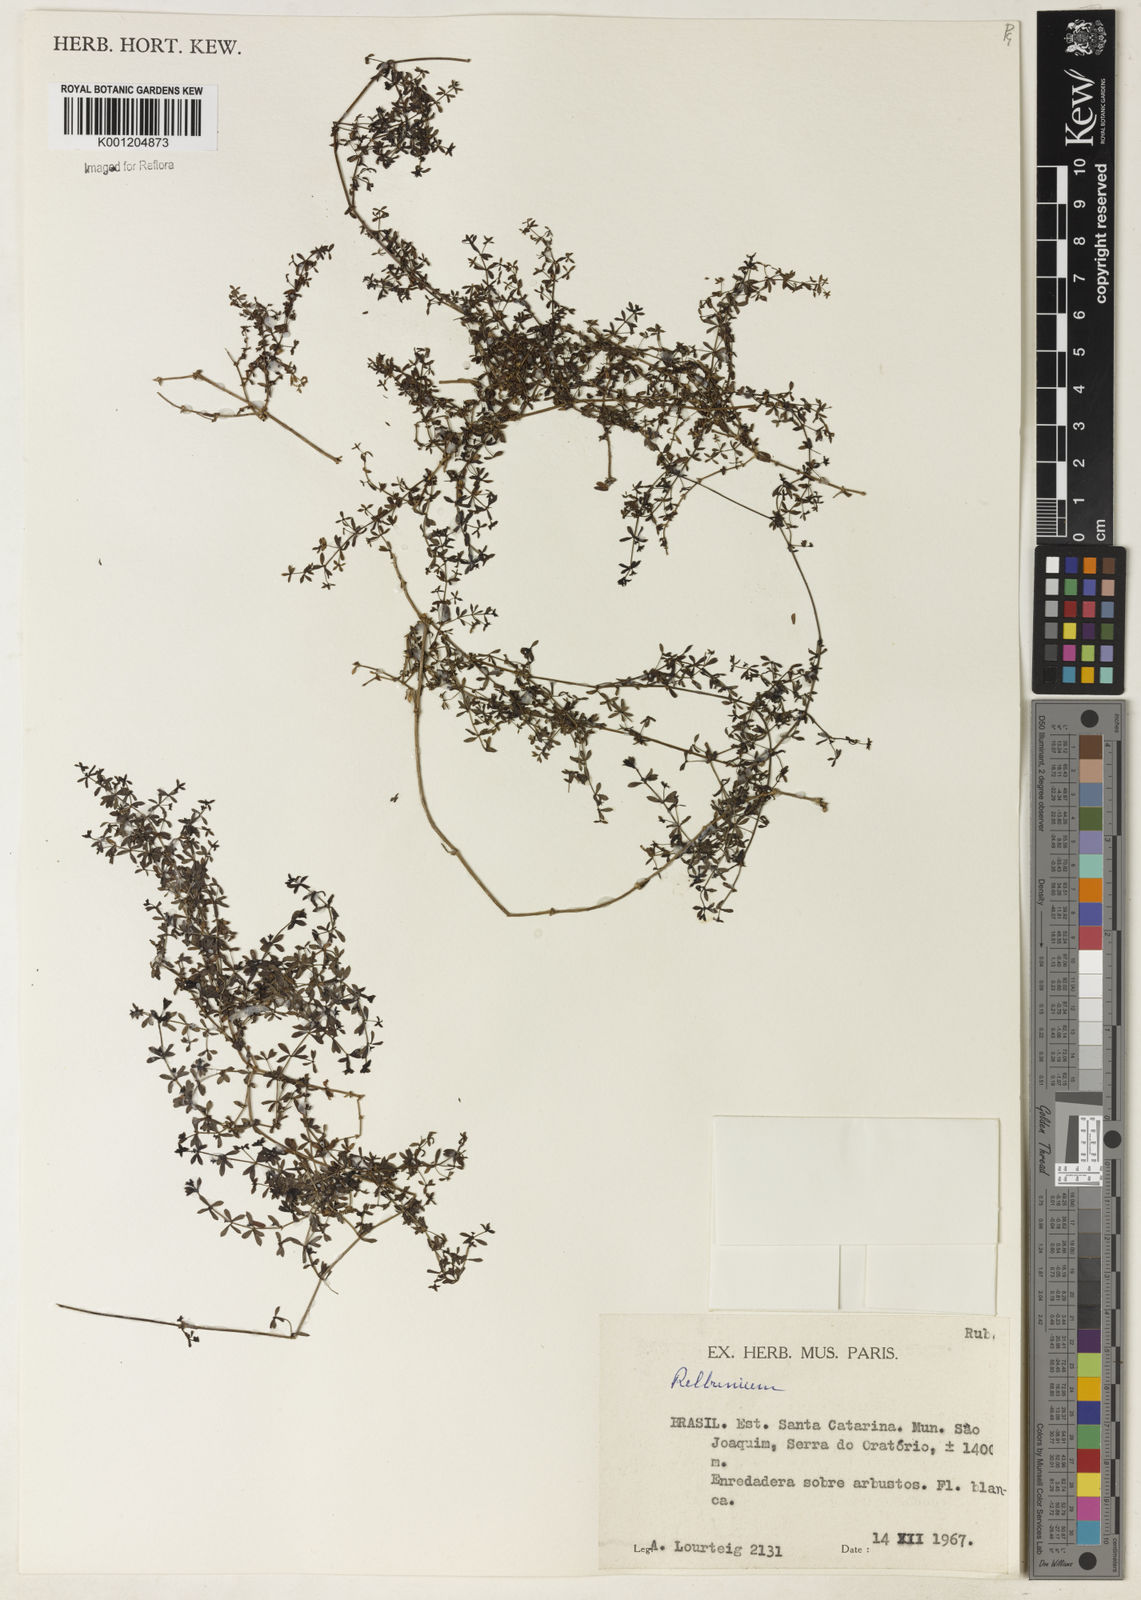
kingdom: Plantae
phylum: Tracheophyta
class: Magnoliopsida
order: Gentianales
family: Rubiaceae
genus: Galium
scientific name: Galium
